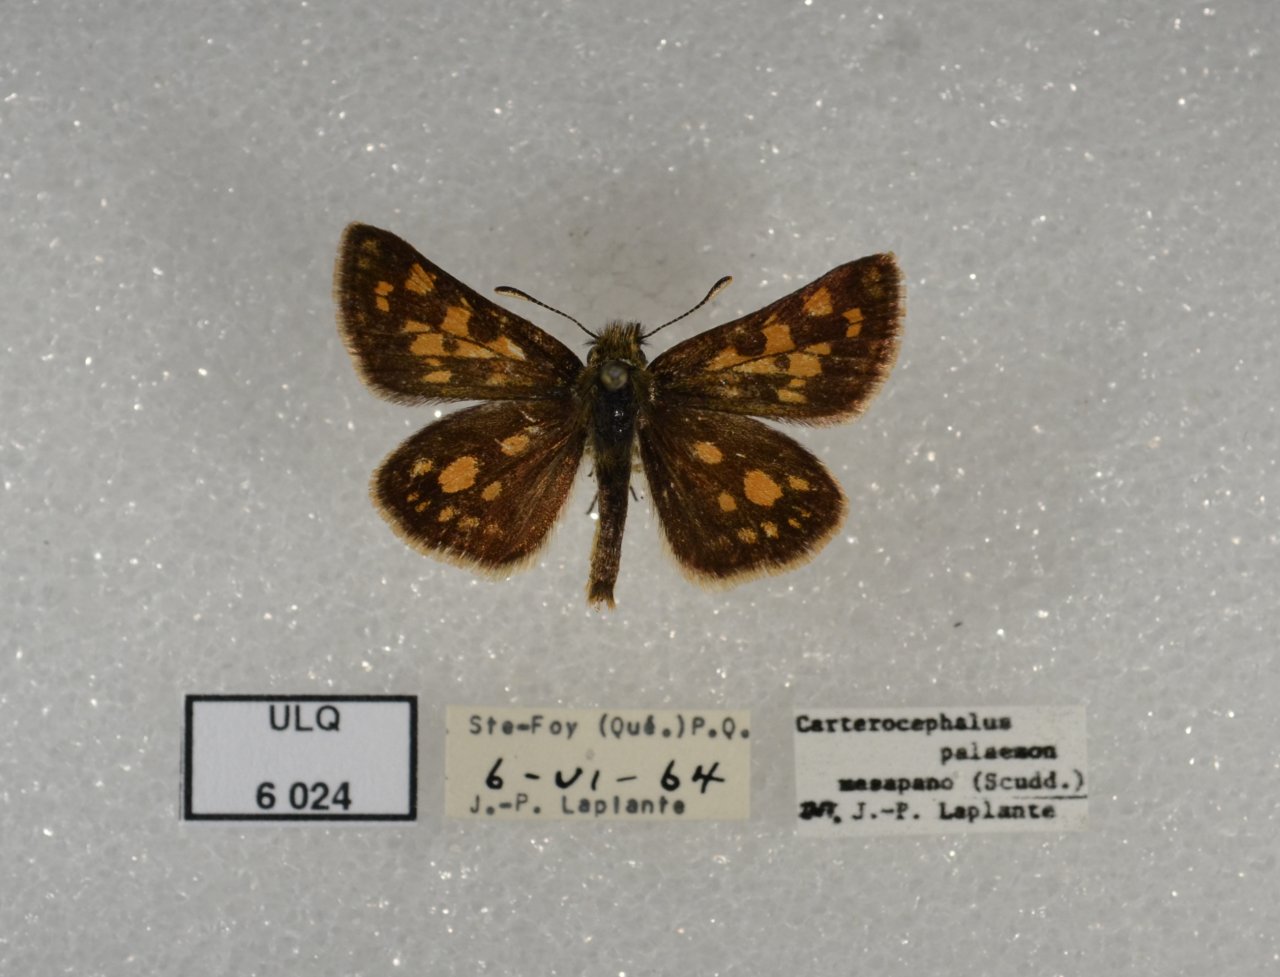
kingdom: Animalia
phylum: Arthropoda
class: Insecta
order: Lepidoptera
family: Hesperiidae
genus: Carterocephalus
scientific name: Carterocephalus palaemon
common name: Chequered Skipper
